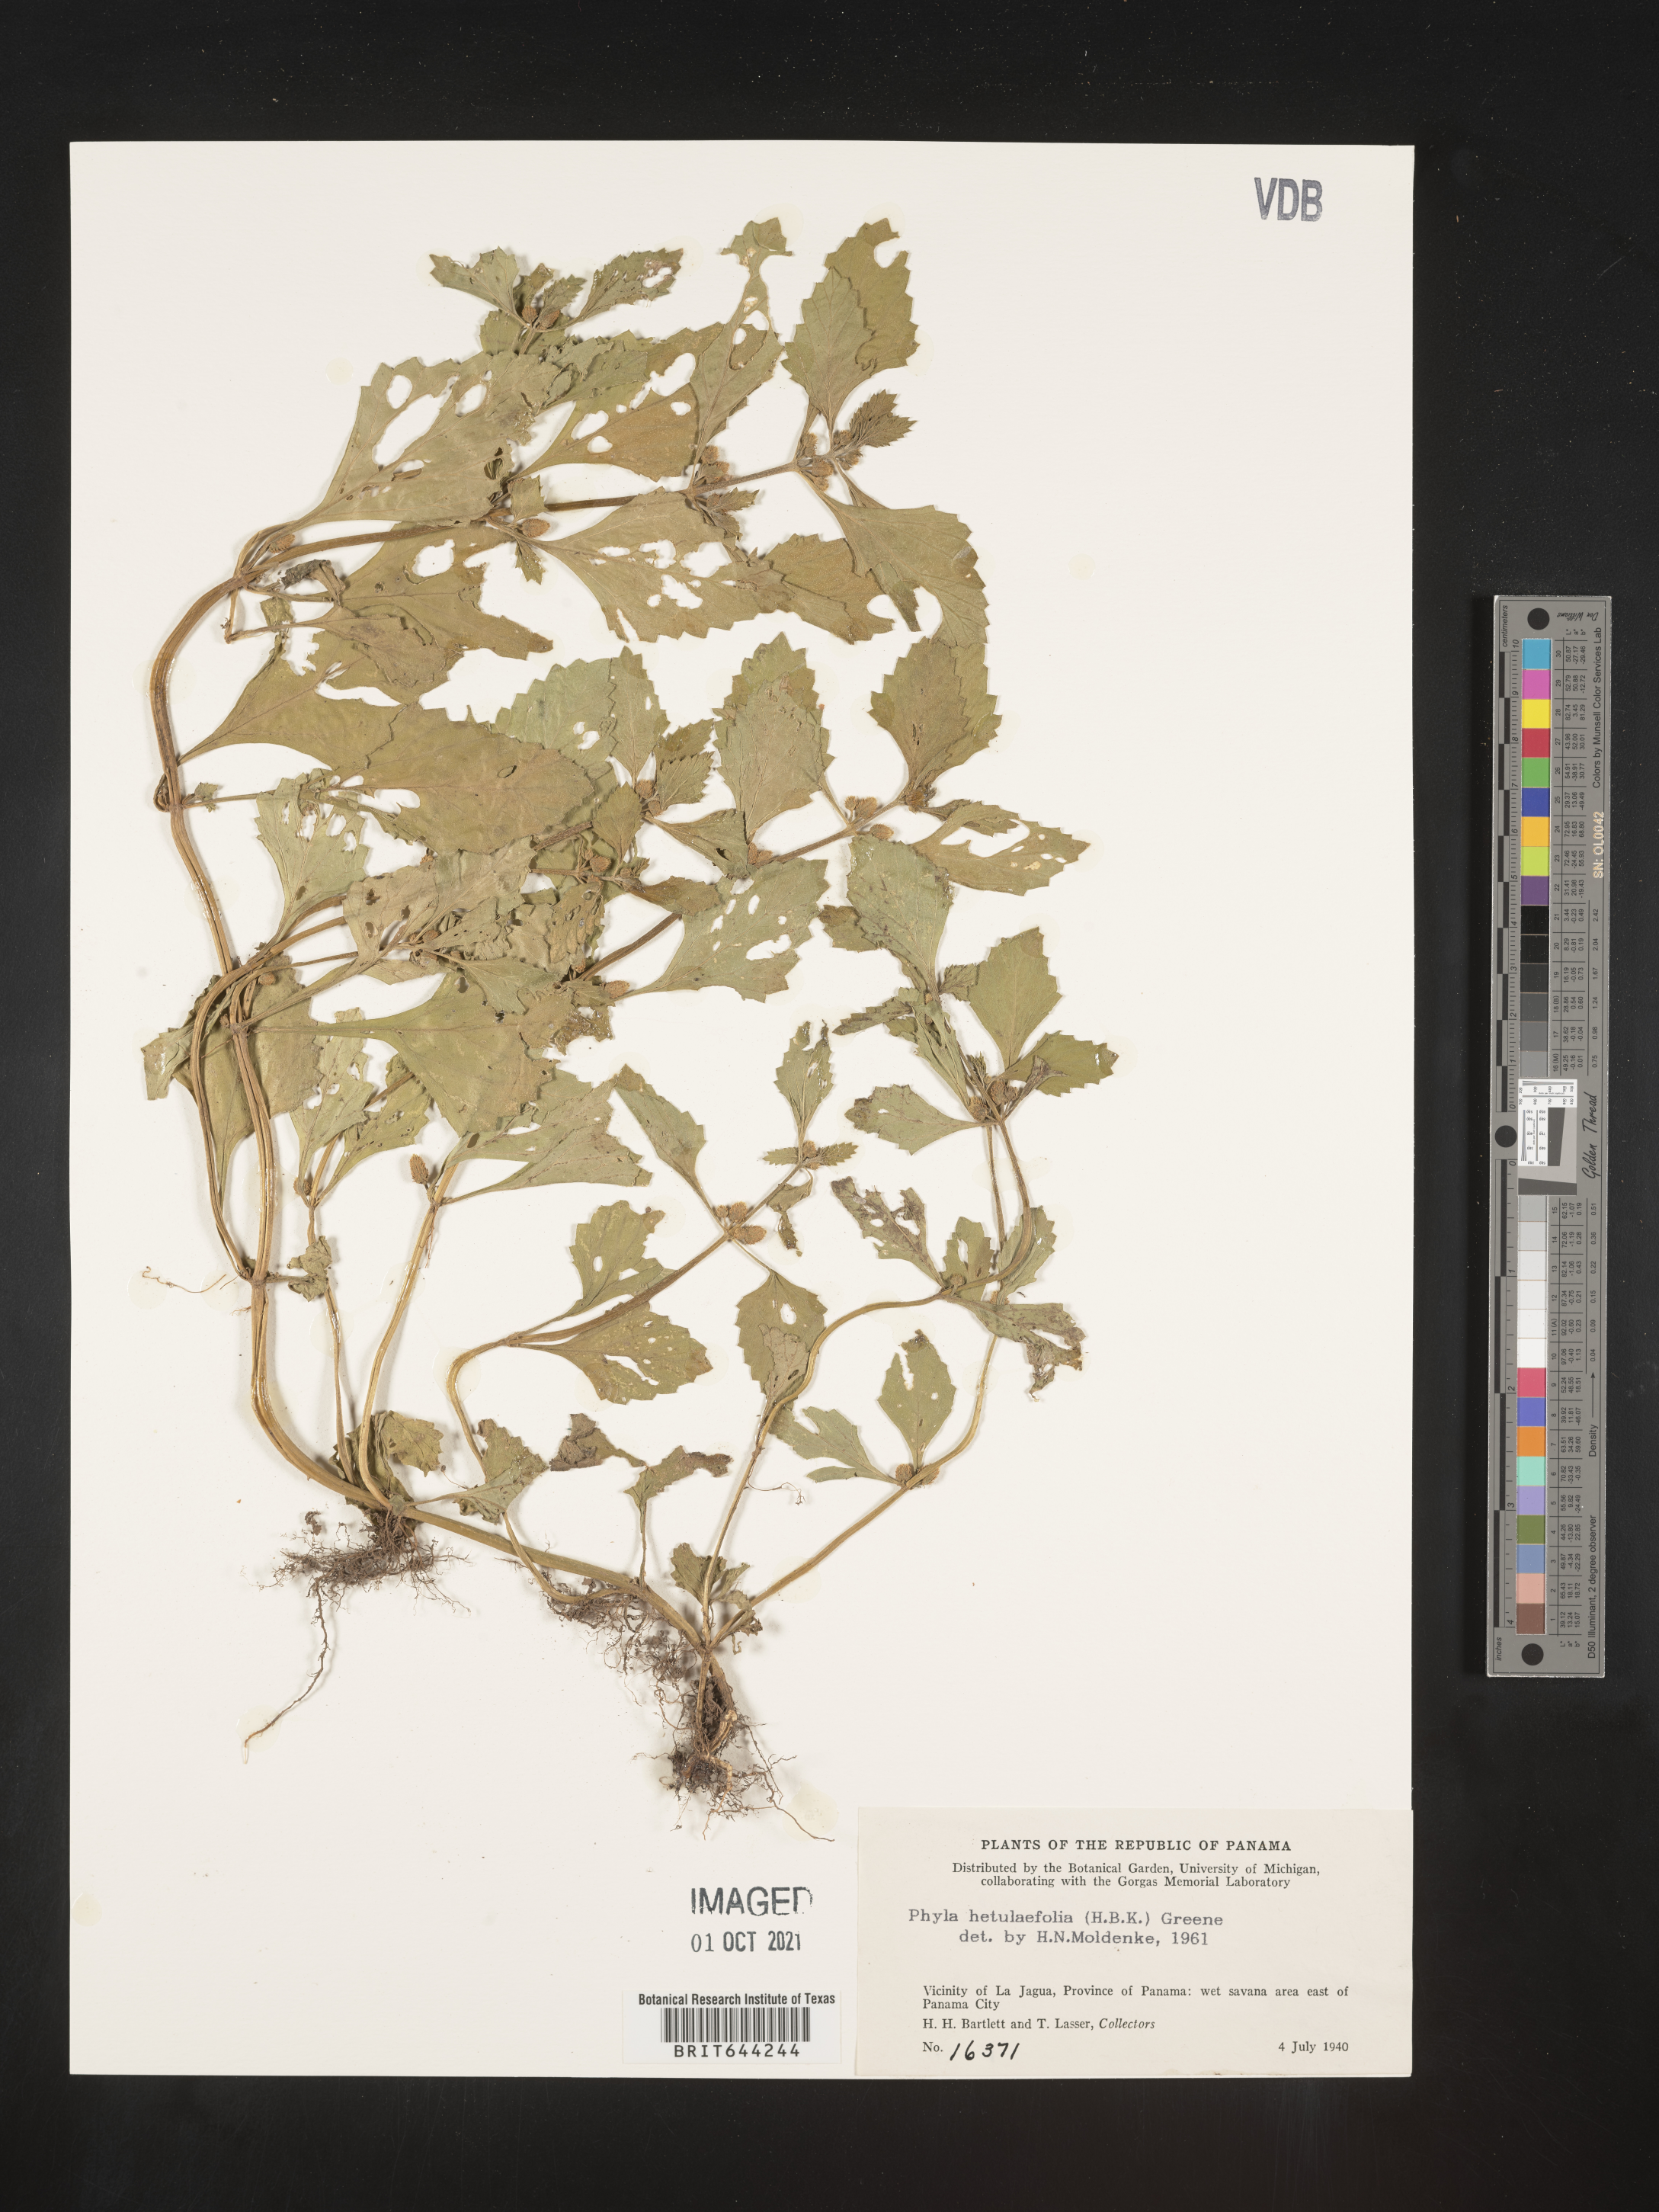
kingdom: Plantae
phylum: Tracheophyta
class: Magnoliopsida
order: Lamiales
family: Verbenaceae
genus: Lippia
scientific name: Lippia
